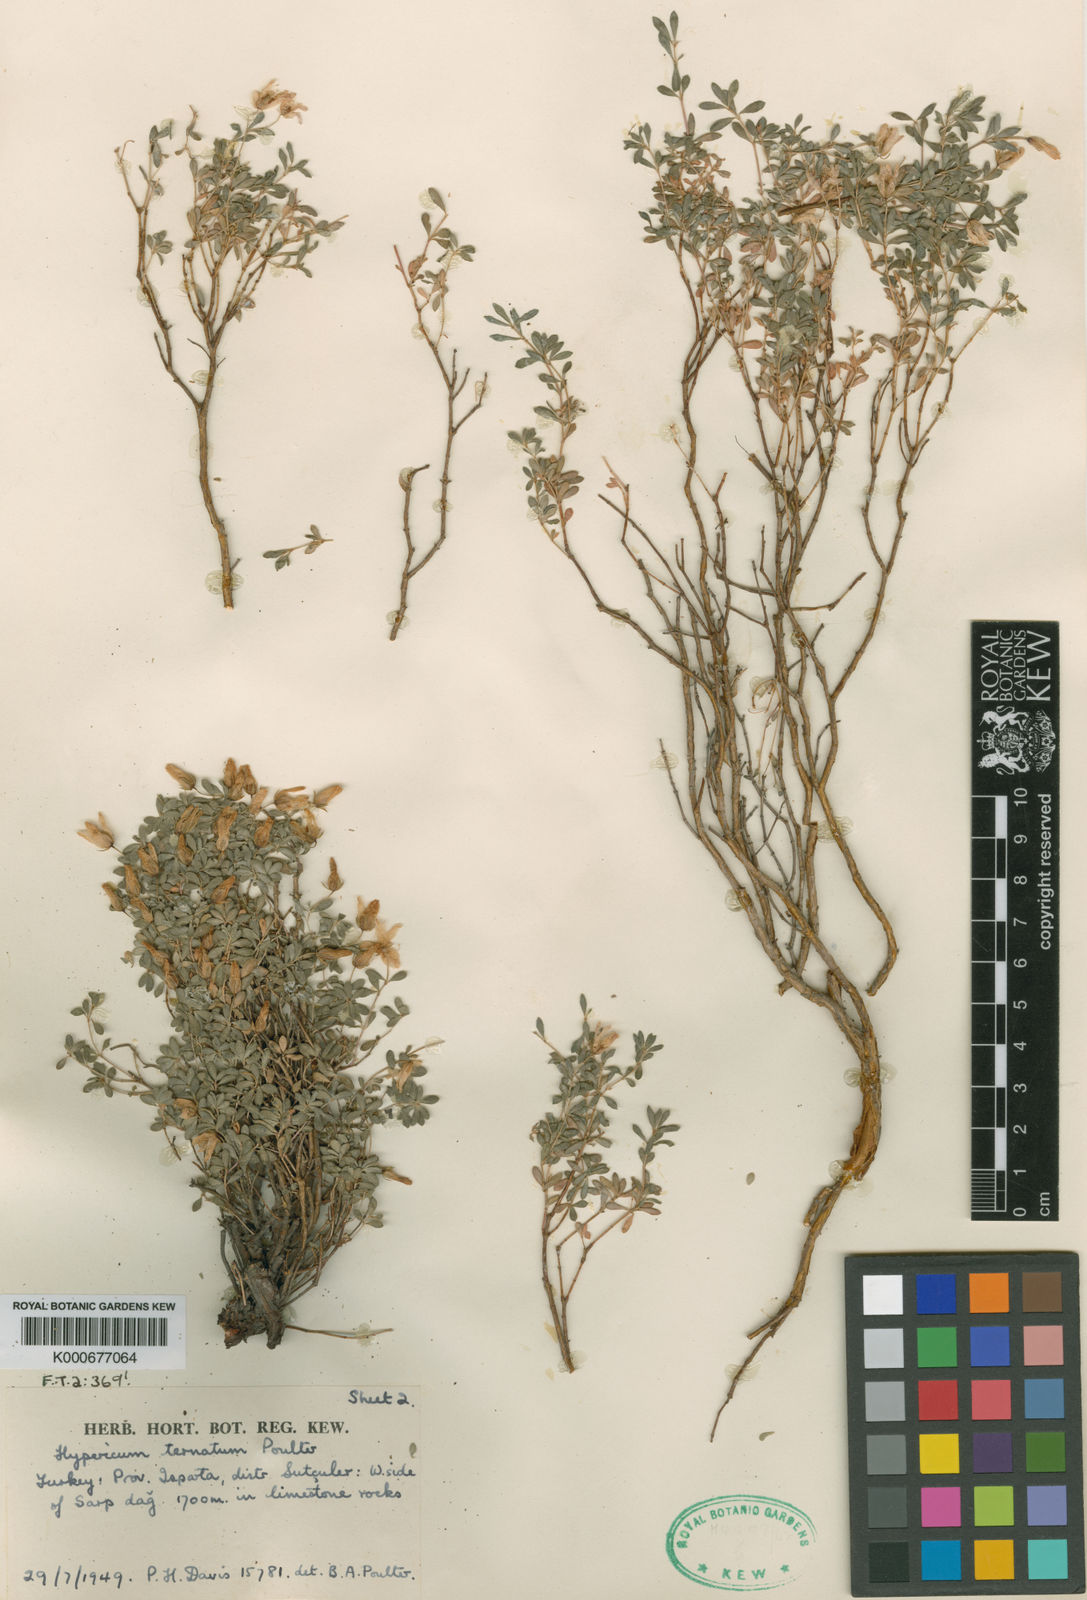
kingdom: Plantae
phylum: Tracheophyta
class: Magnoliopsida
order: Malpighiales
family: Hypericaceae
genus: Hypericum
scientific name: Hypericum ternatum
